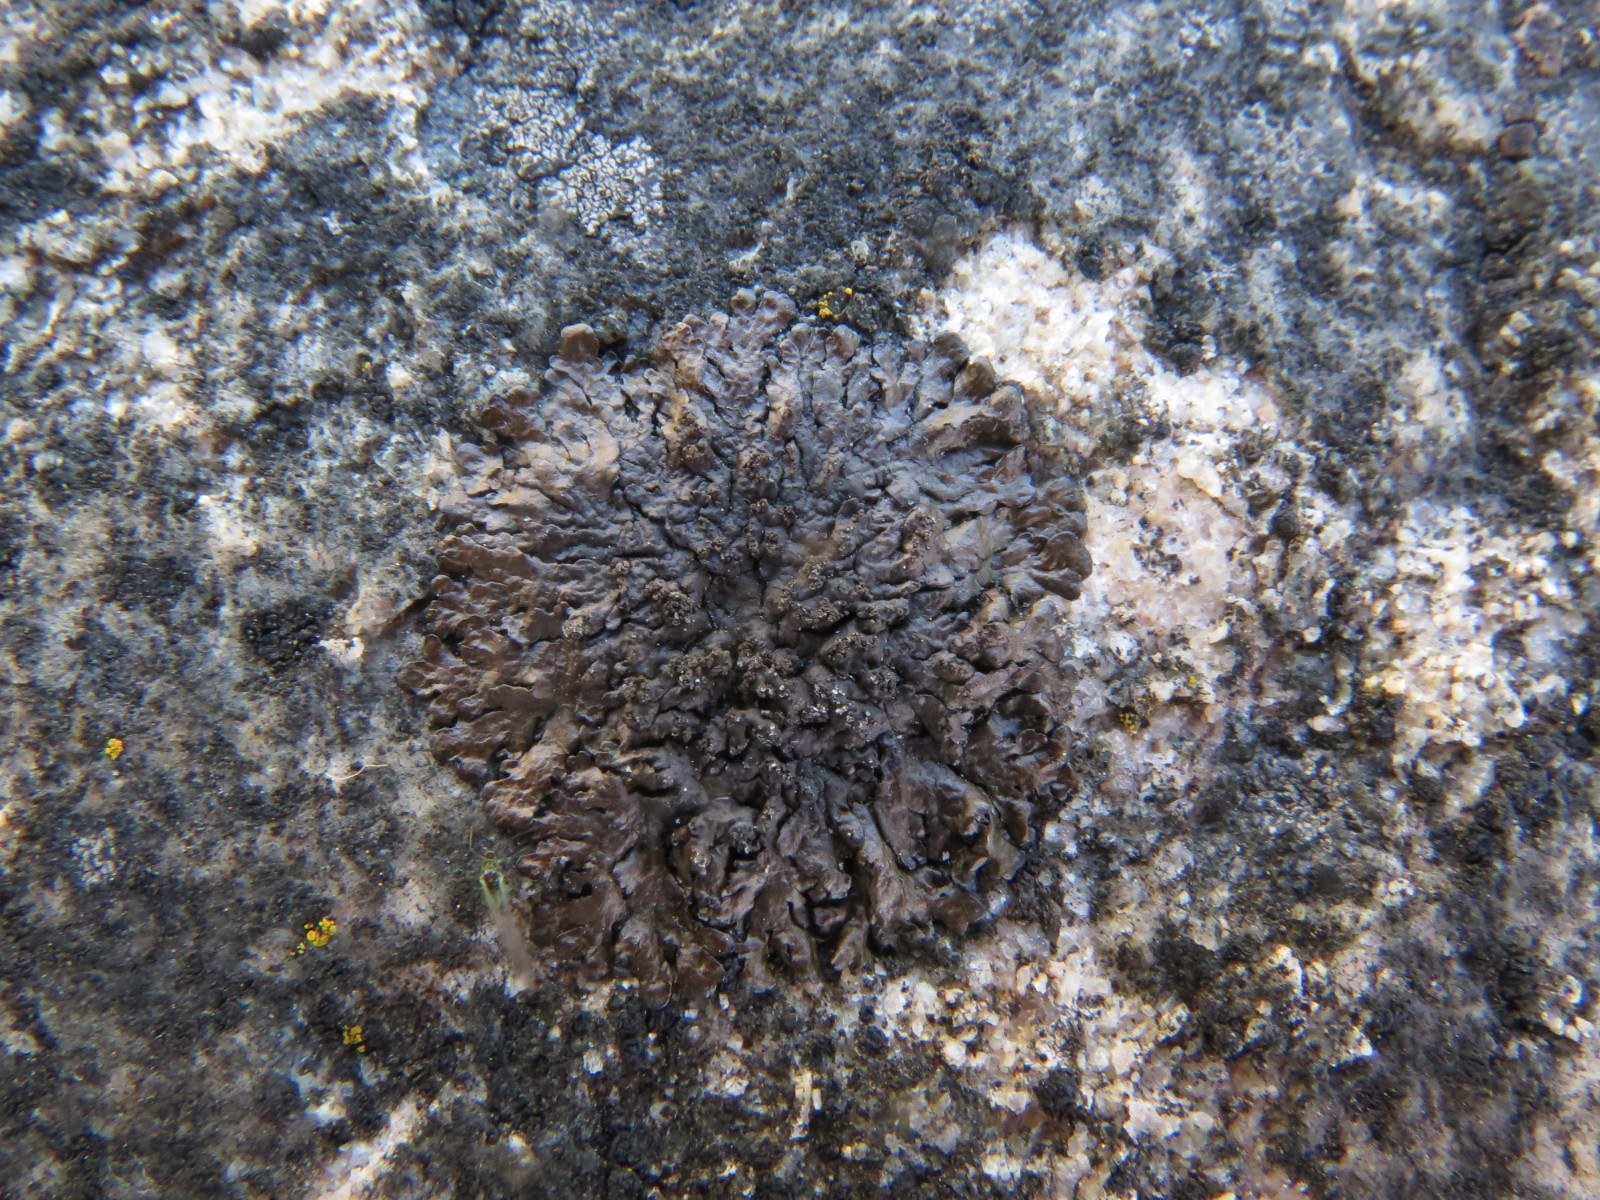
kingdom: Fungi
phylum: Ascomycota
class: Lecanoromycetes
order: Lecanorales
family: Parmeliaceae
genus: Xanthoparmelia
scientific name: Xanthoparmelia verruculifera
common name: småknoppet skållav
